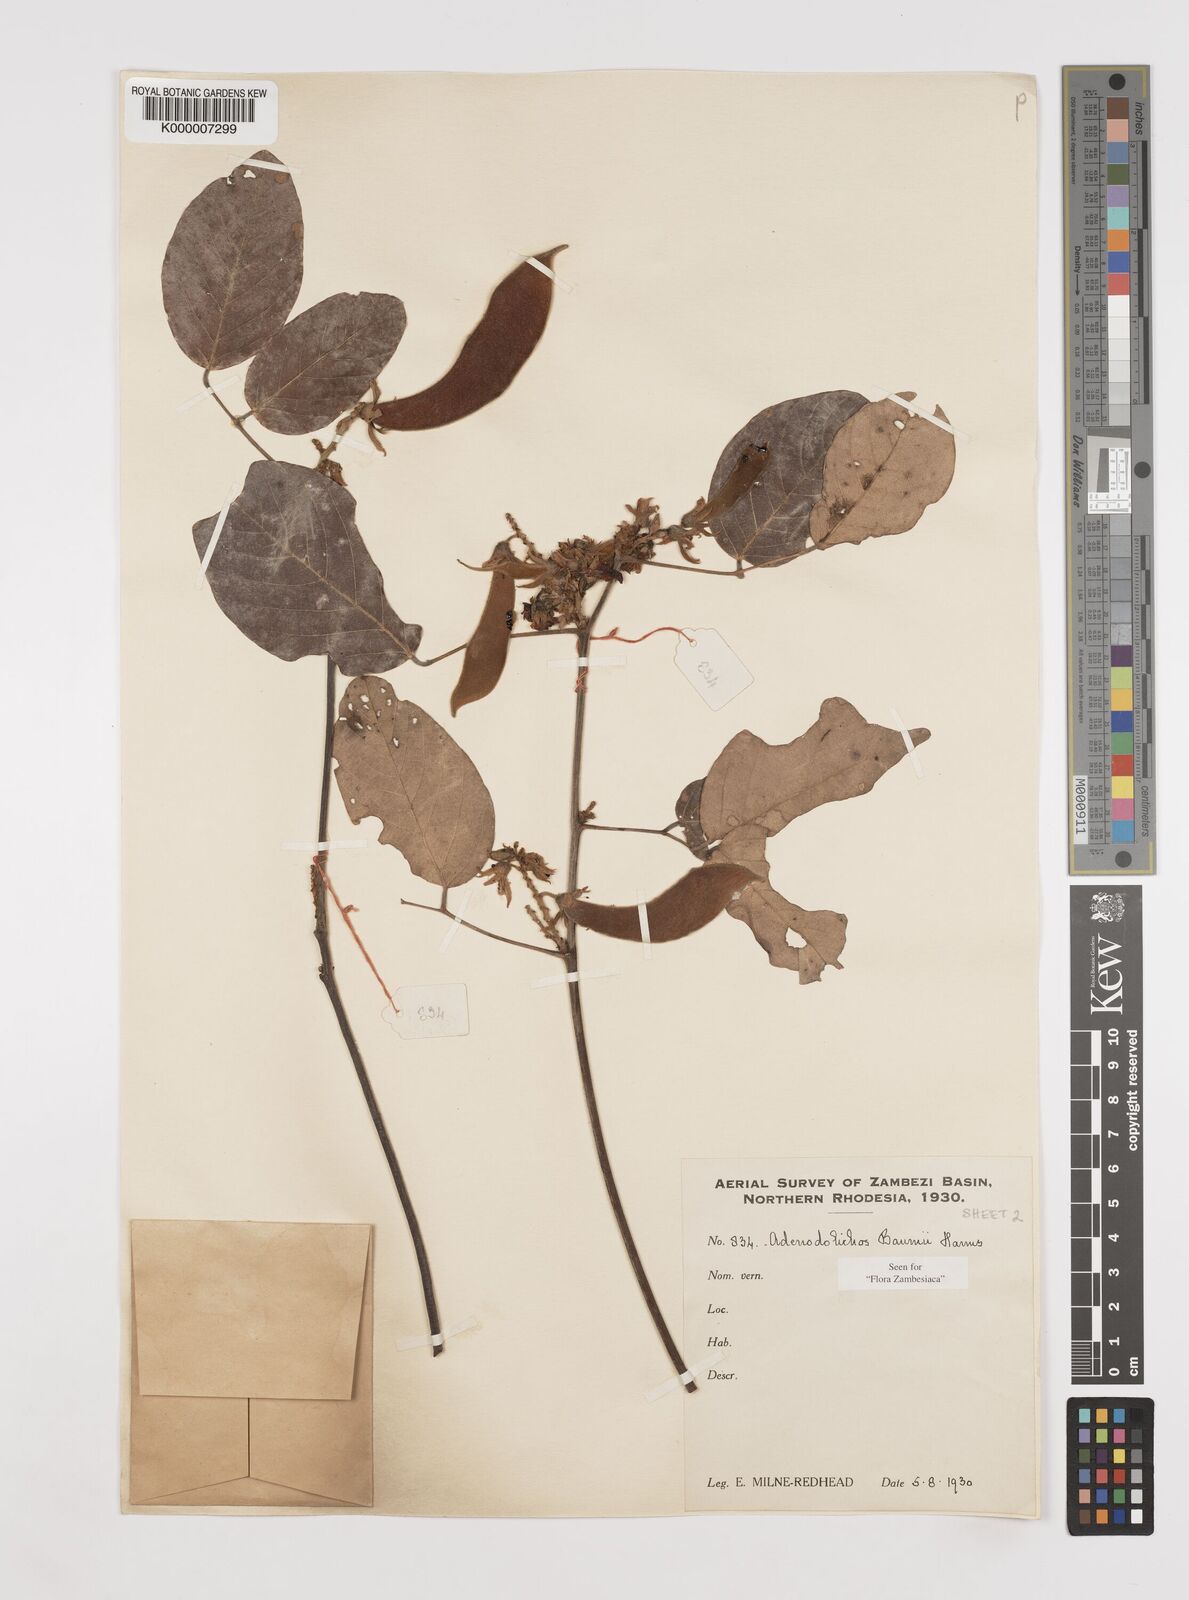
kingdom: Plantae
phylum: Tracheophyta
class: Magnoliopsida
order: Fabales
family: Fabaceae
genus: Adenodolichos
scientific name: Adenodolichos baumii
